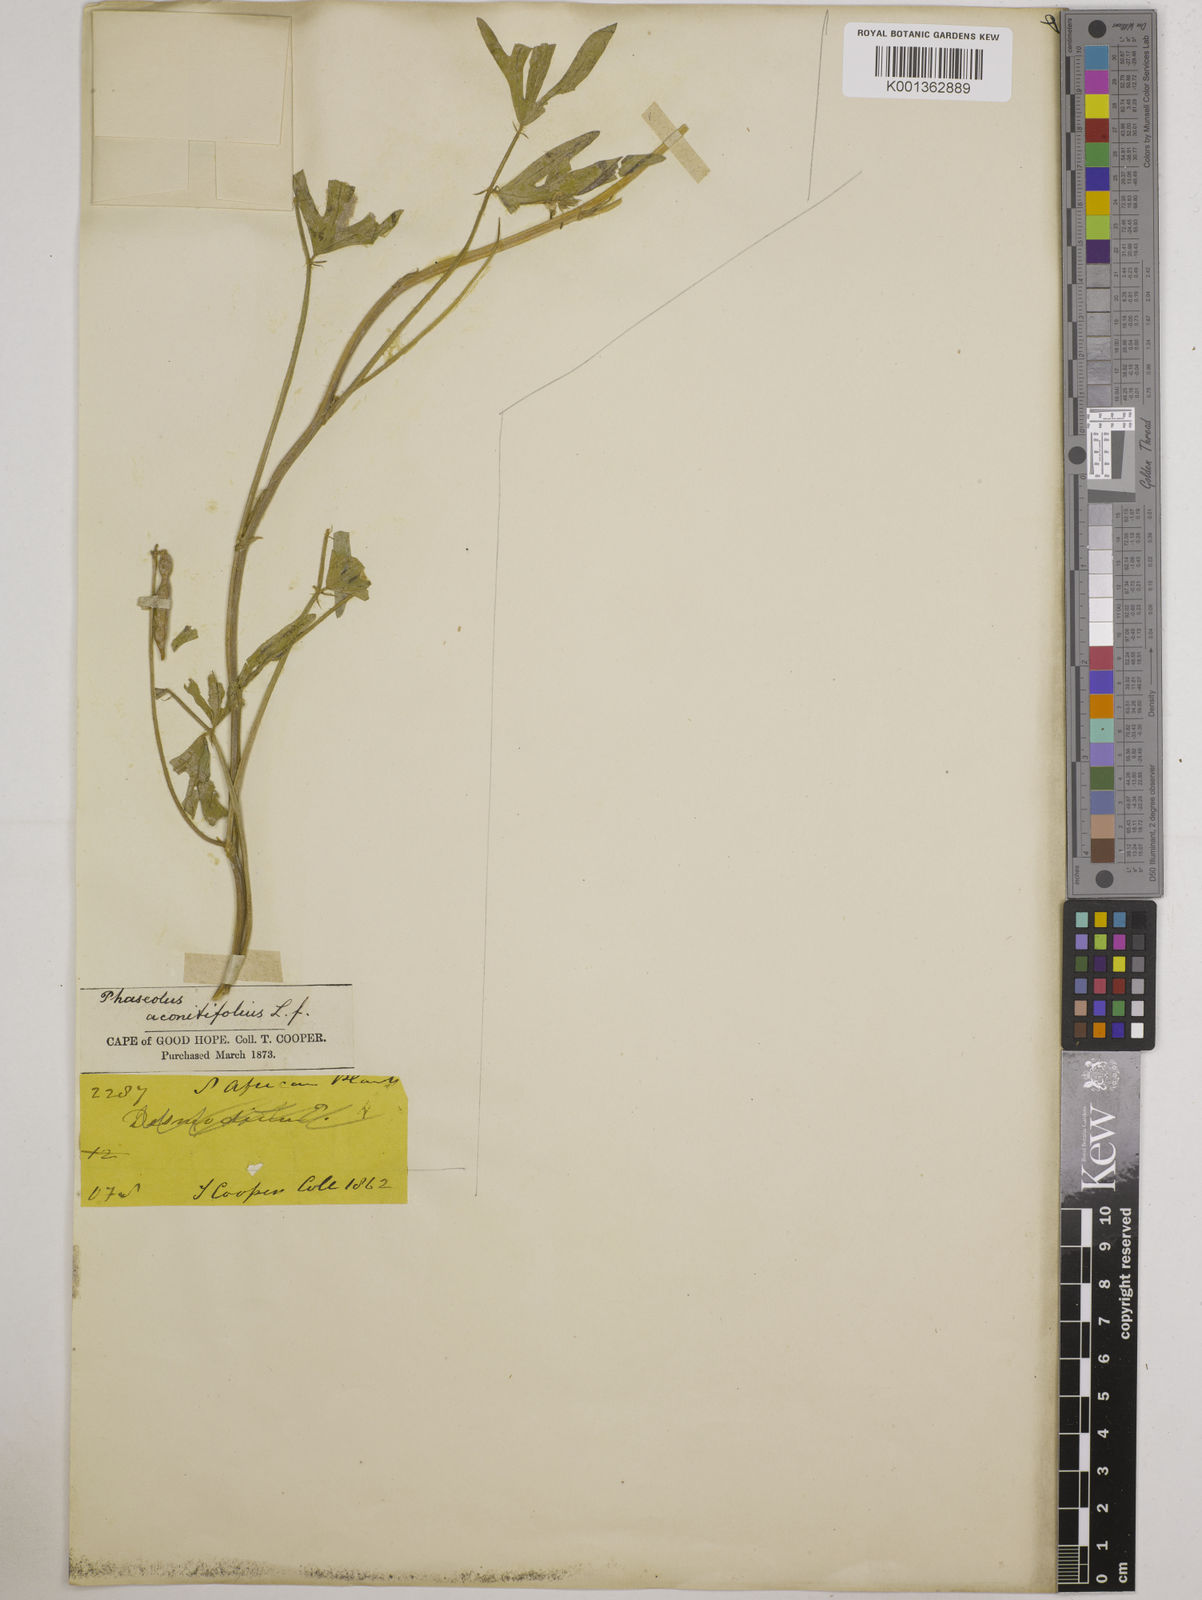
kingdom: Plantae
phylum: Tracheophyta
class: Magnoliopsida
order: Fabales
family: Fabaceae
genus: Vigna
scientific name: Vigna aconitifolia
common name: Dew bean
